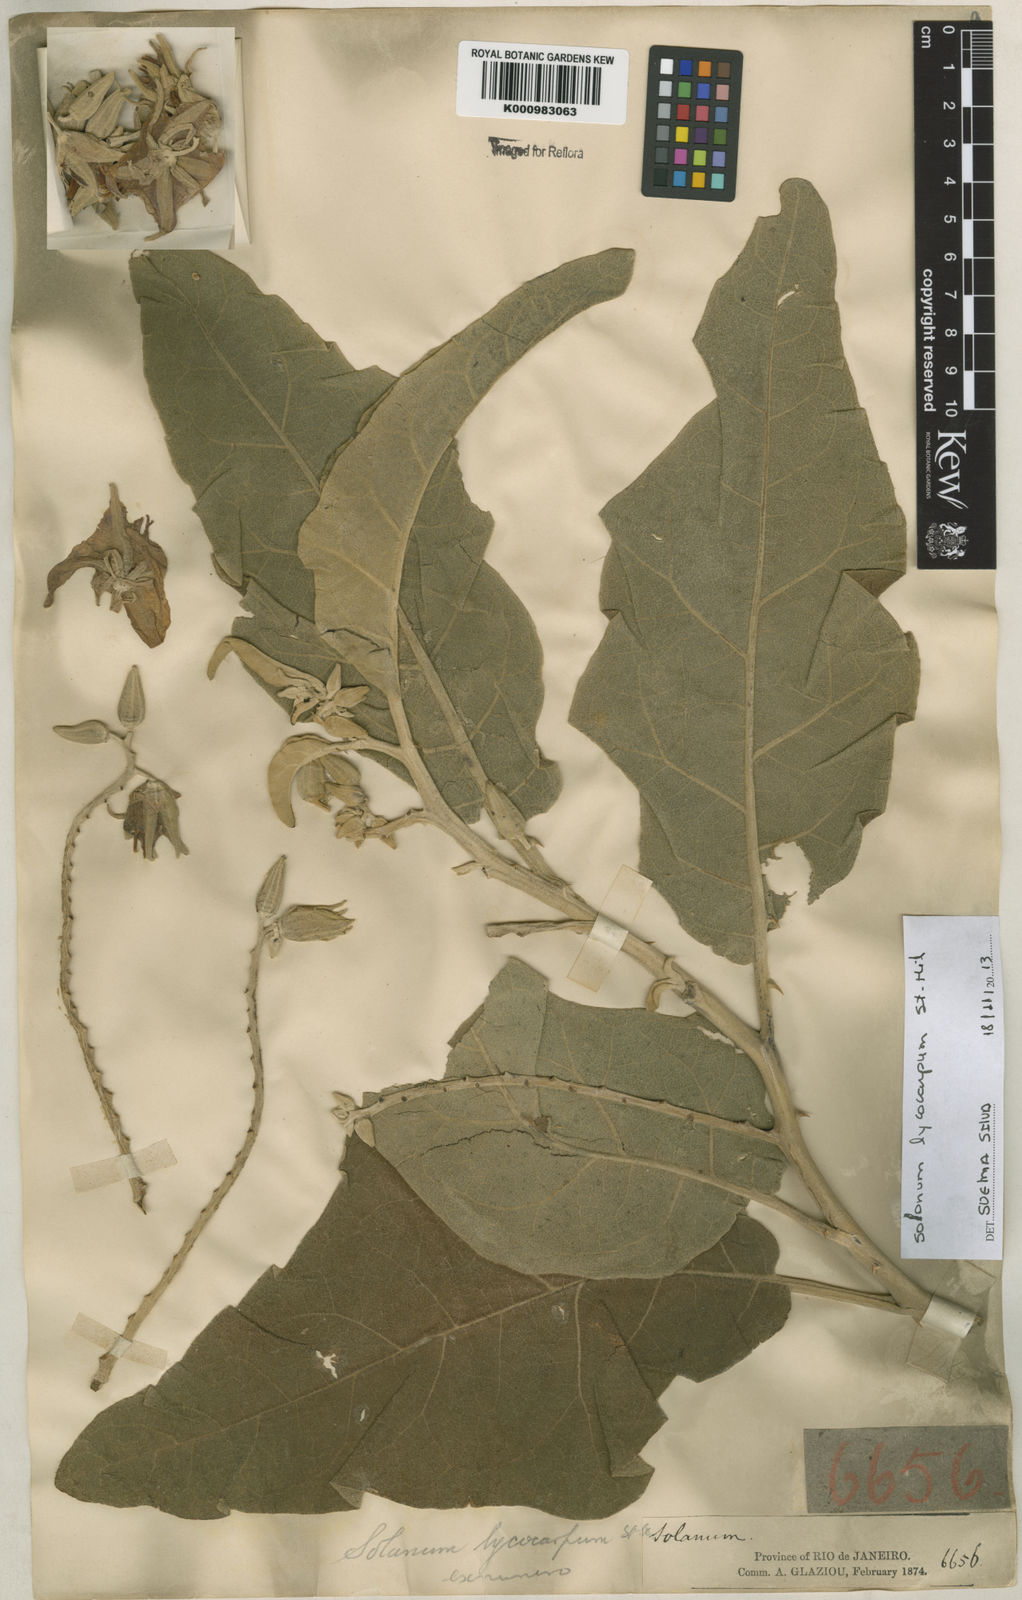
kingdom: Plantae
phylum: Tracheophyta
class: Magnoliopsida
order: Solanales
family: Solanaceae
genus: Solanum
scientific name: Solanum lycocarpum
